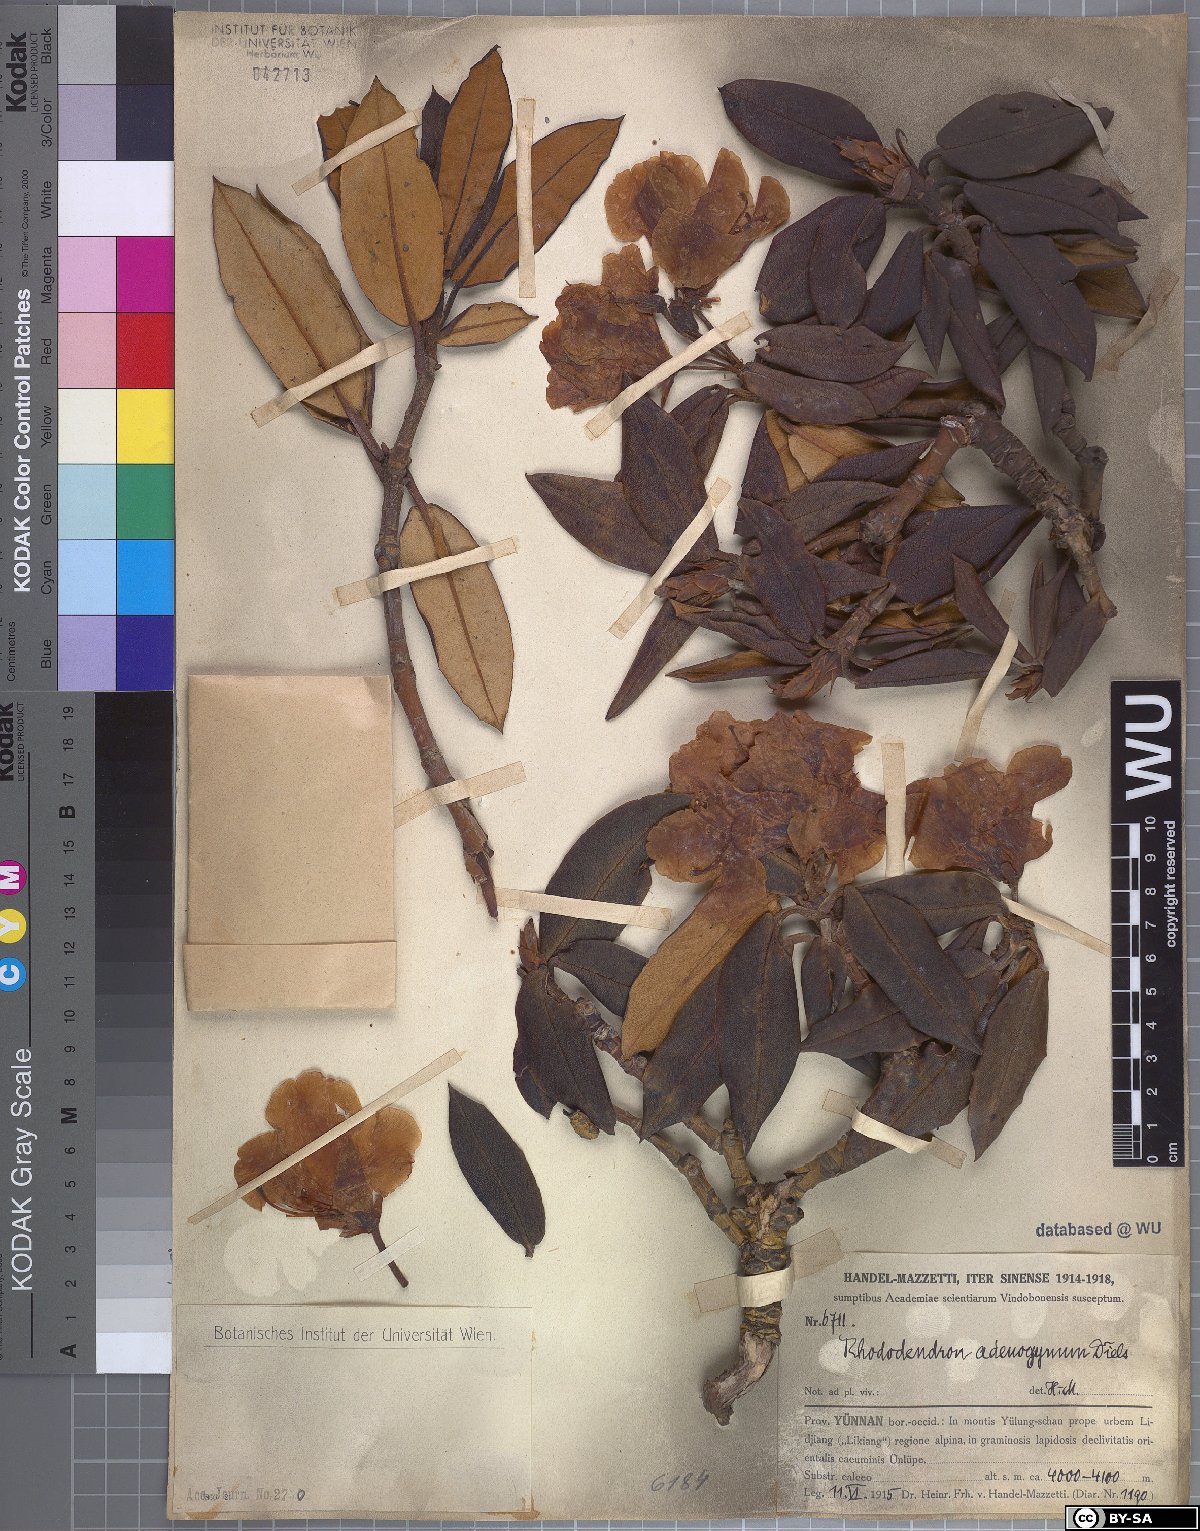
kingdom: Plantae
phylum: Tracheophyta
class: Magnoliopsida
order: Ericales
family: Ericaceae
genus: Rhododendron
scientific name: Rhododendron adenogynum
